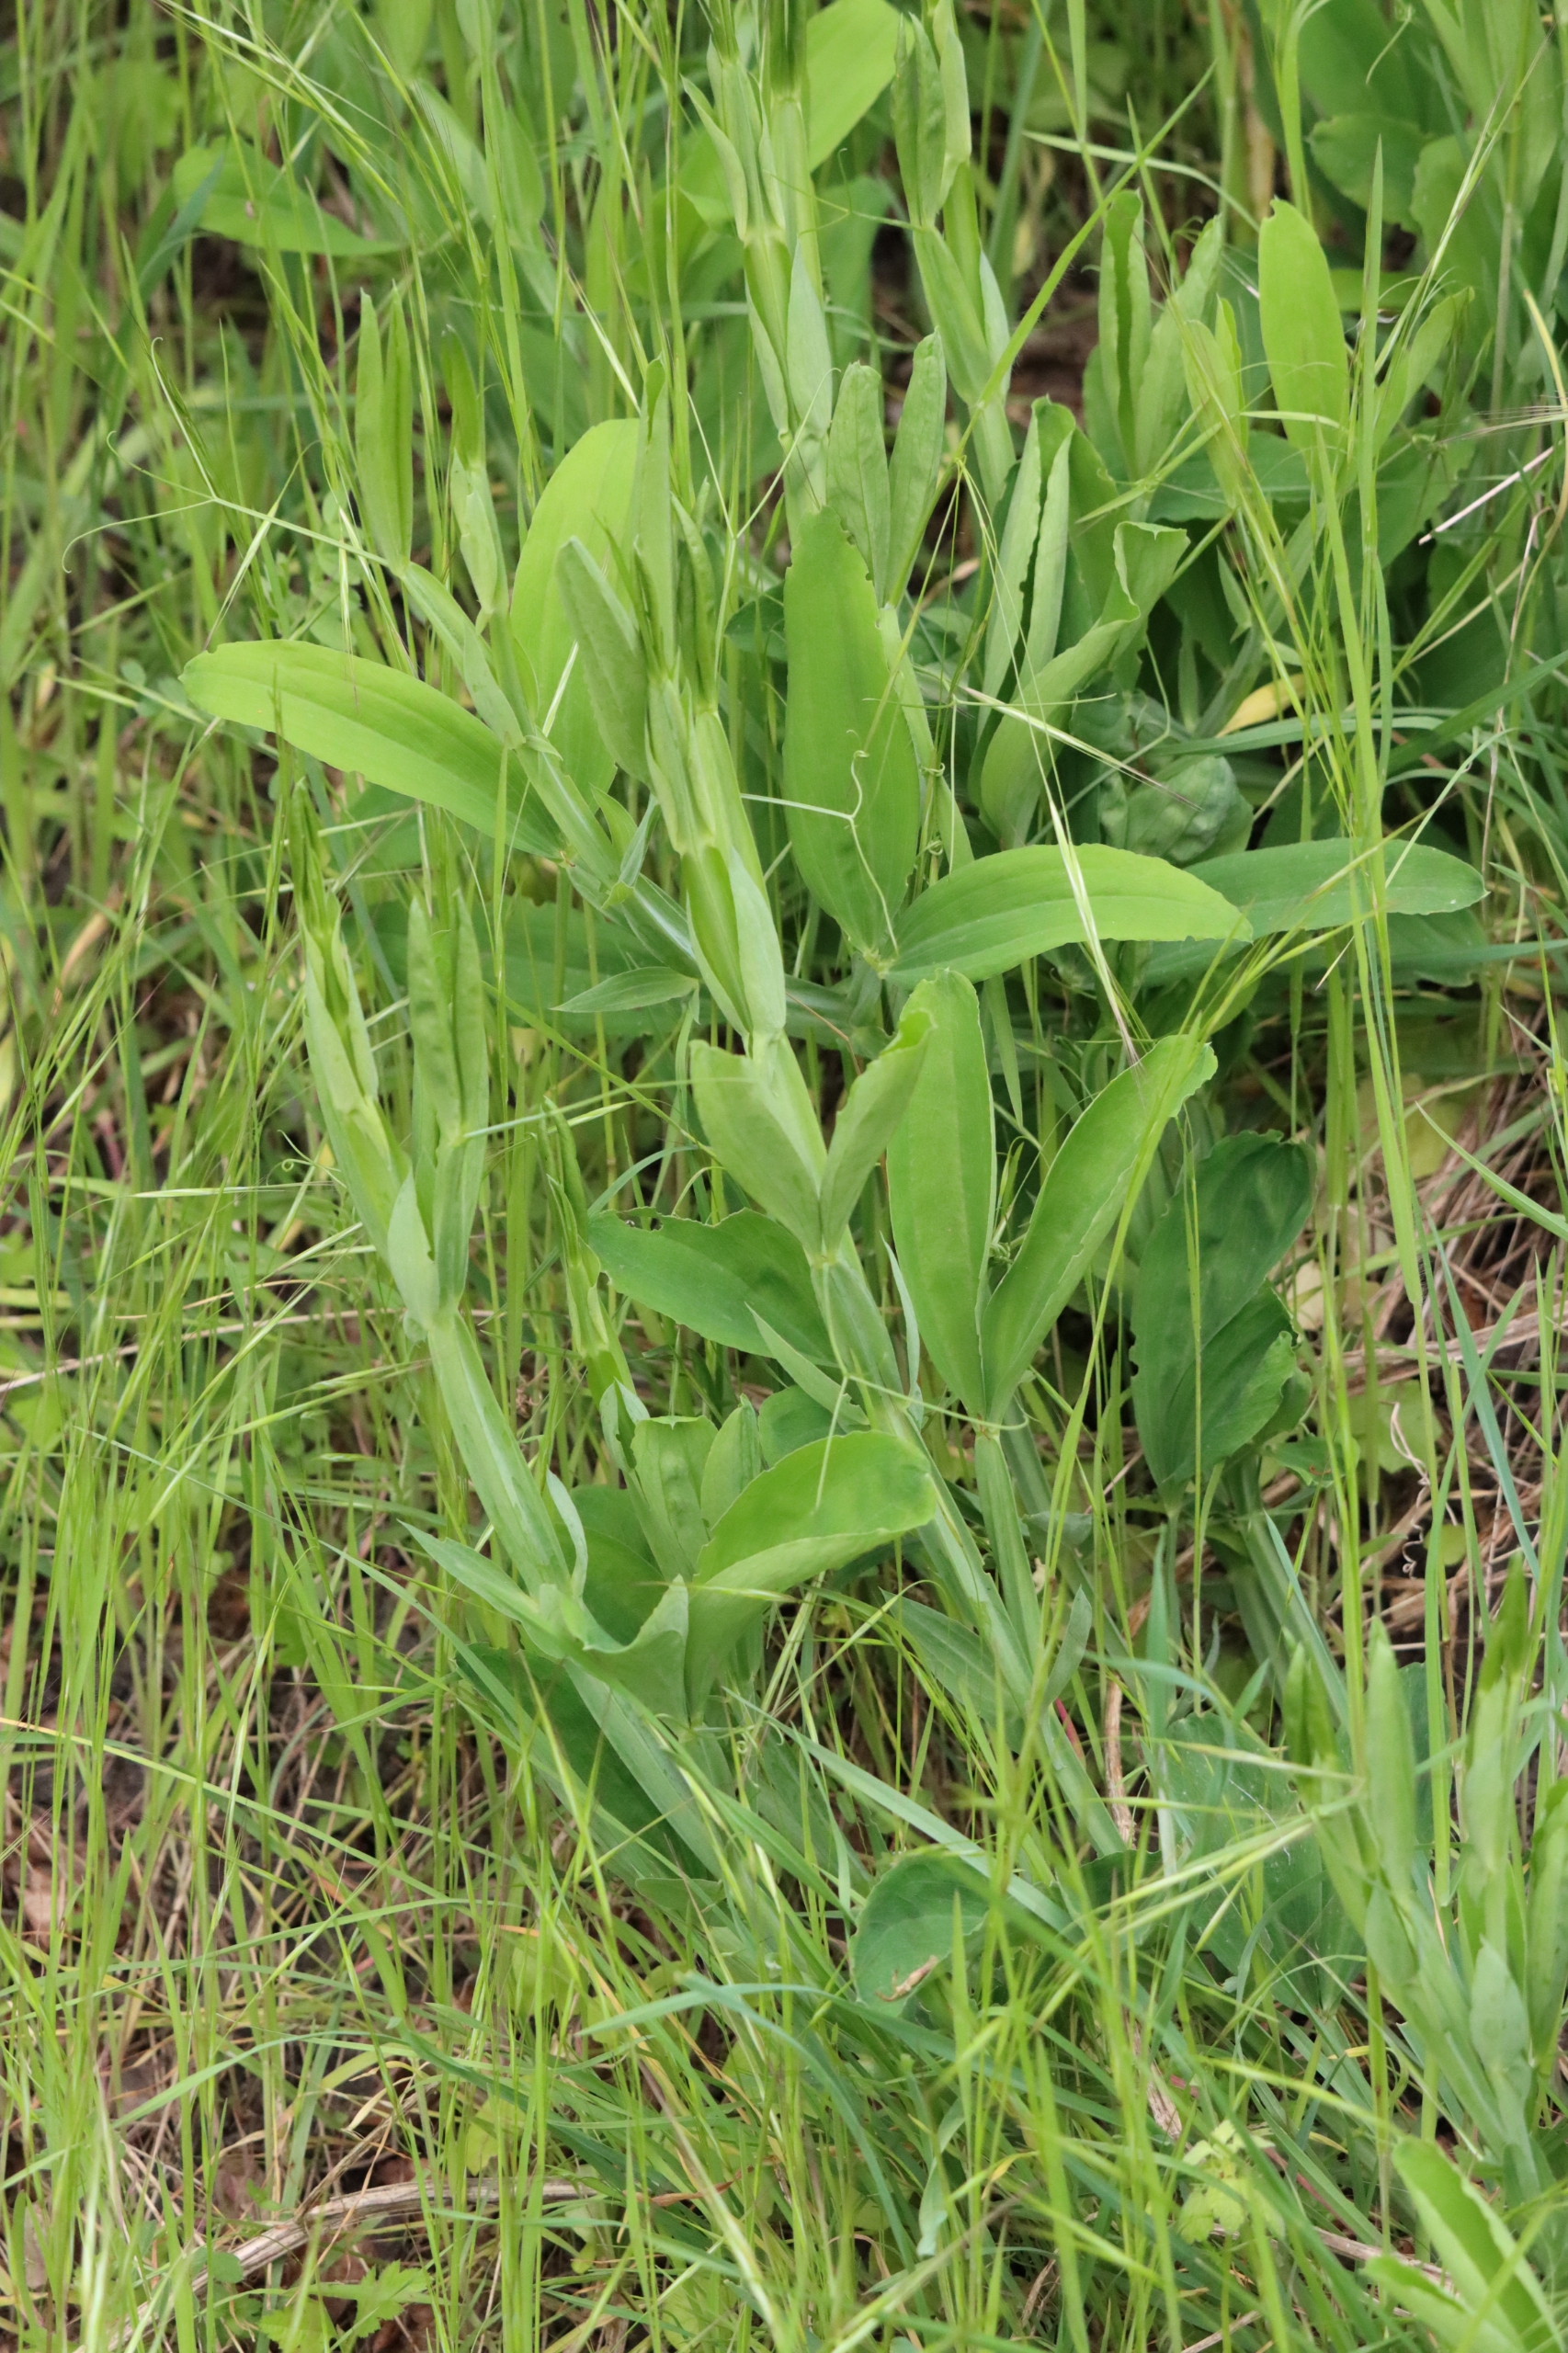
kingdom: Plantae
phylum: Tracheophyta
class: Magnoliopsida
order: Fabales
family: Fabaceae
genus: Lathyrus
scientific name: Lathyrus latifolius
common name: Flerårig ærteblomst
